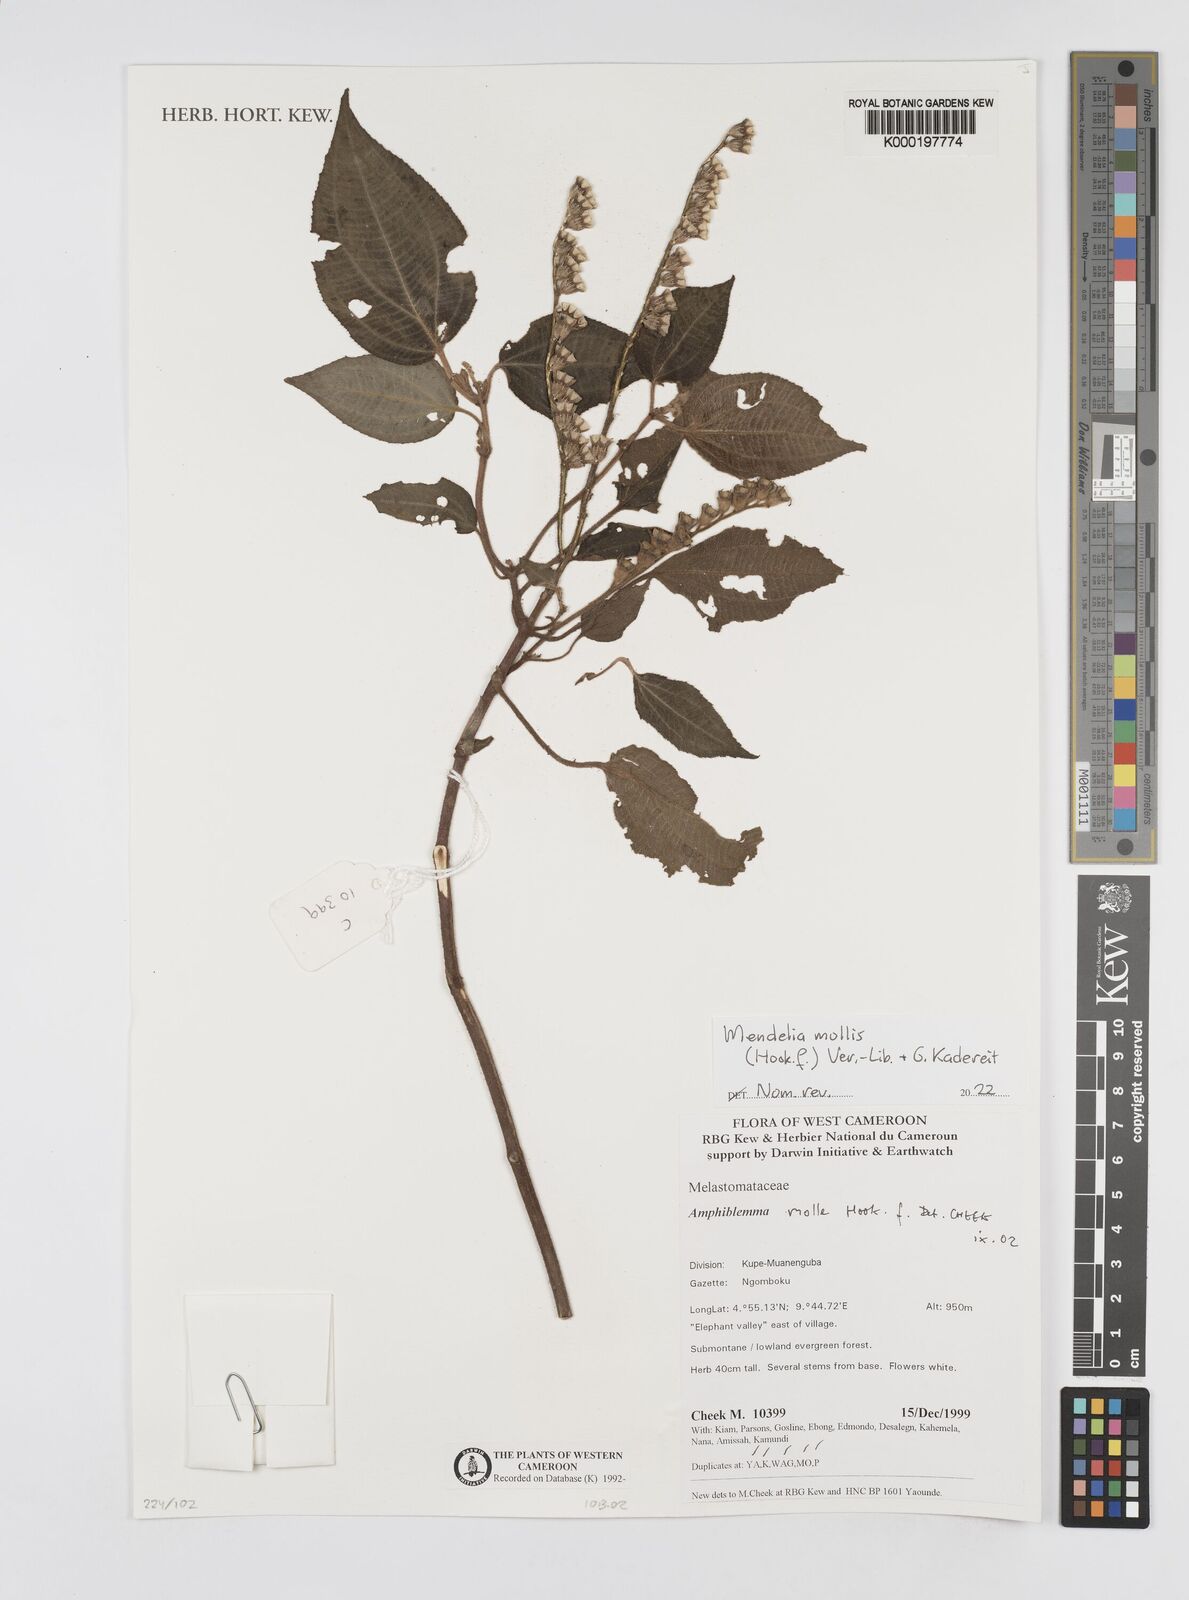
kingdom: Plantae
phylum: Tracheophyta
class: Magnoliopsida
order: Myrtales
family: Melastomataceae
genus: Amphiblemma
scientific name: Amphiblemma molle
